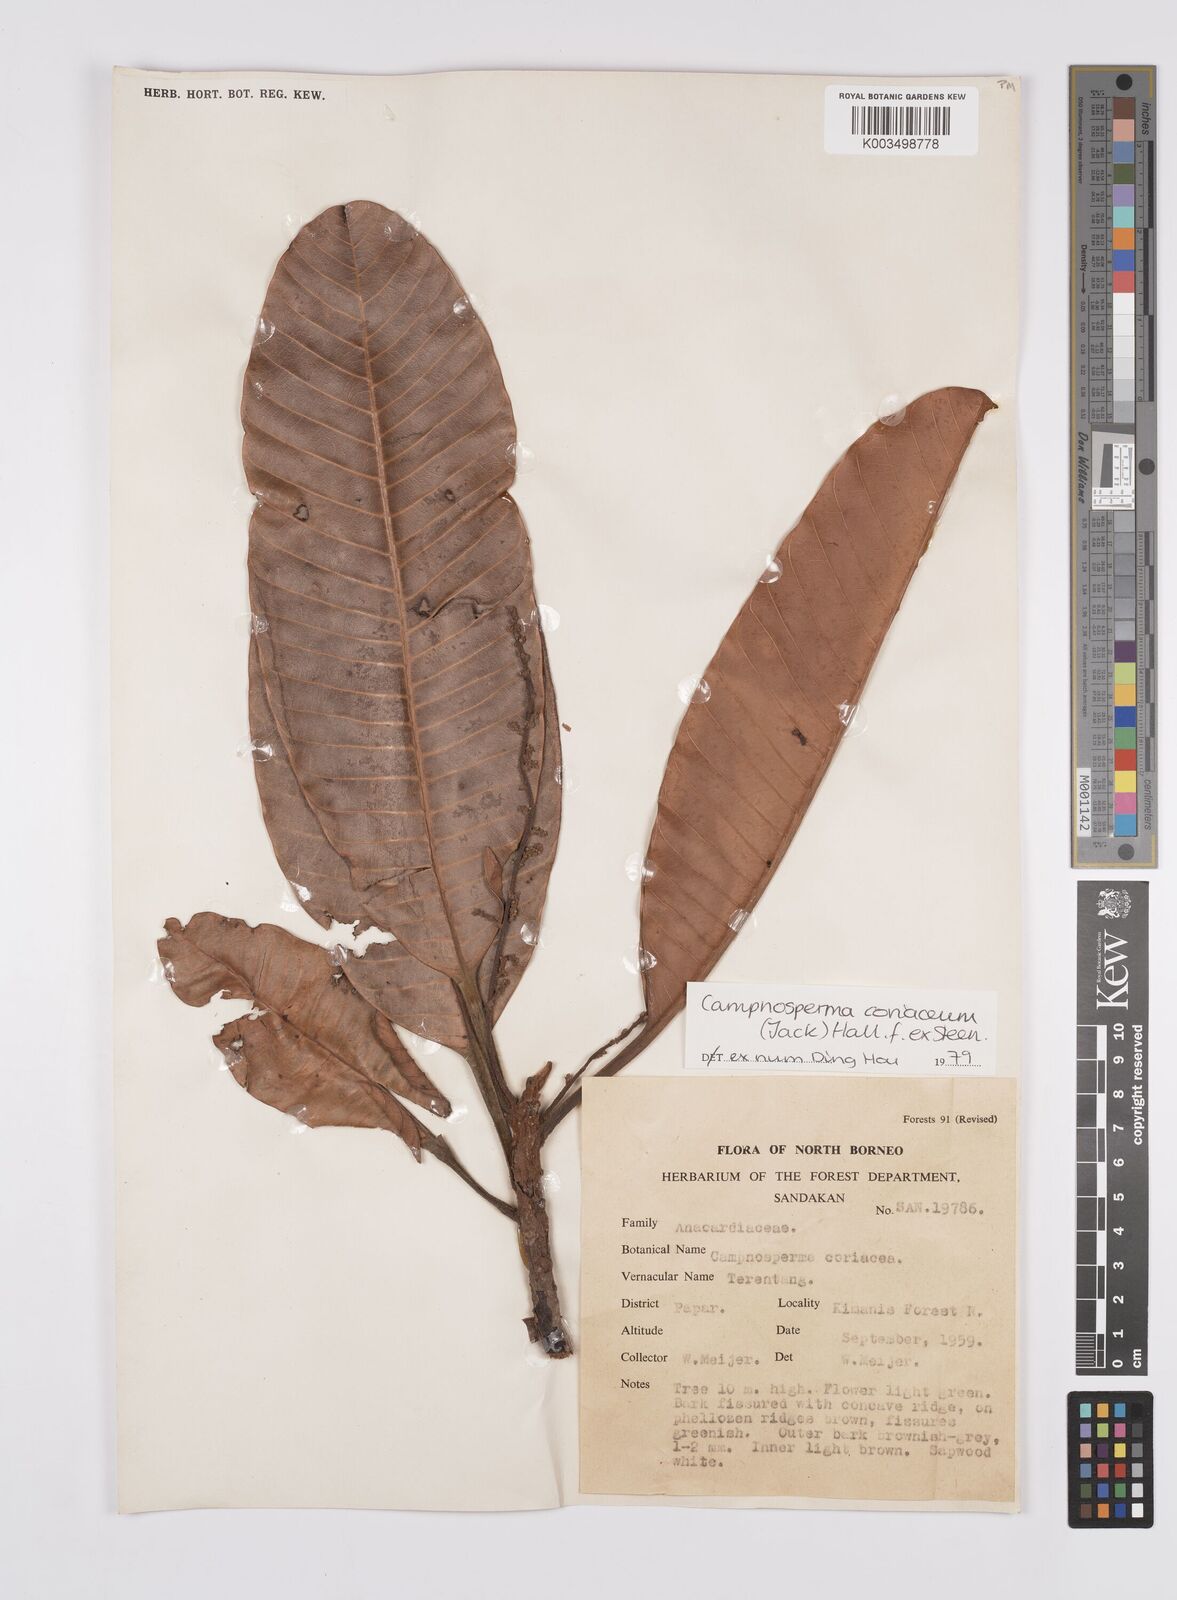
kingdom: Plantae
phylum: Tracheophyta
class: Magnoliopsida
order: Sapindales
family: Anacardiaceae
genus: Campnosperma
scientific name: Campnosperma coriaceum
